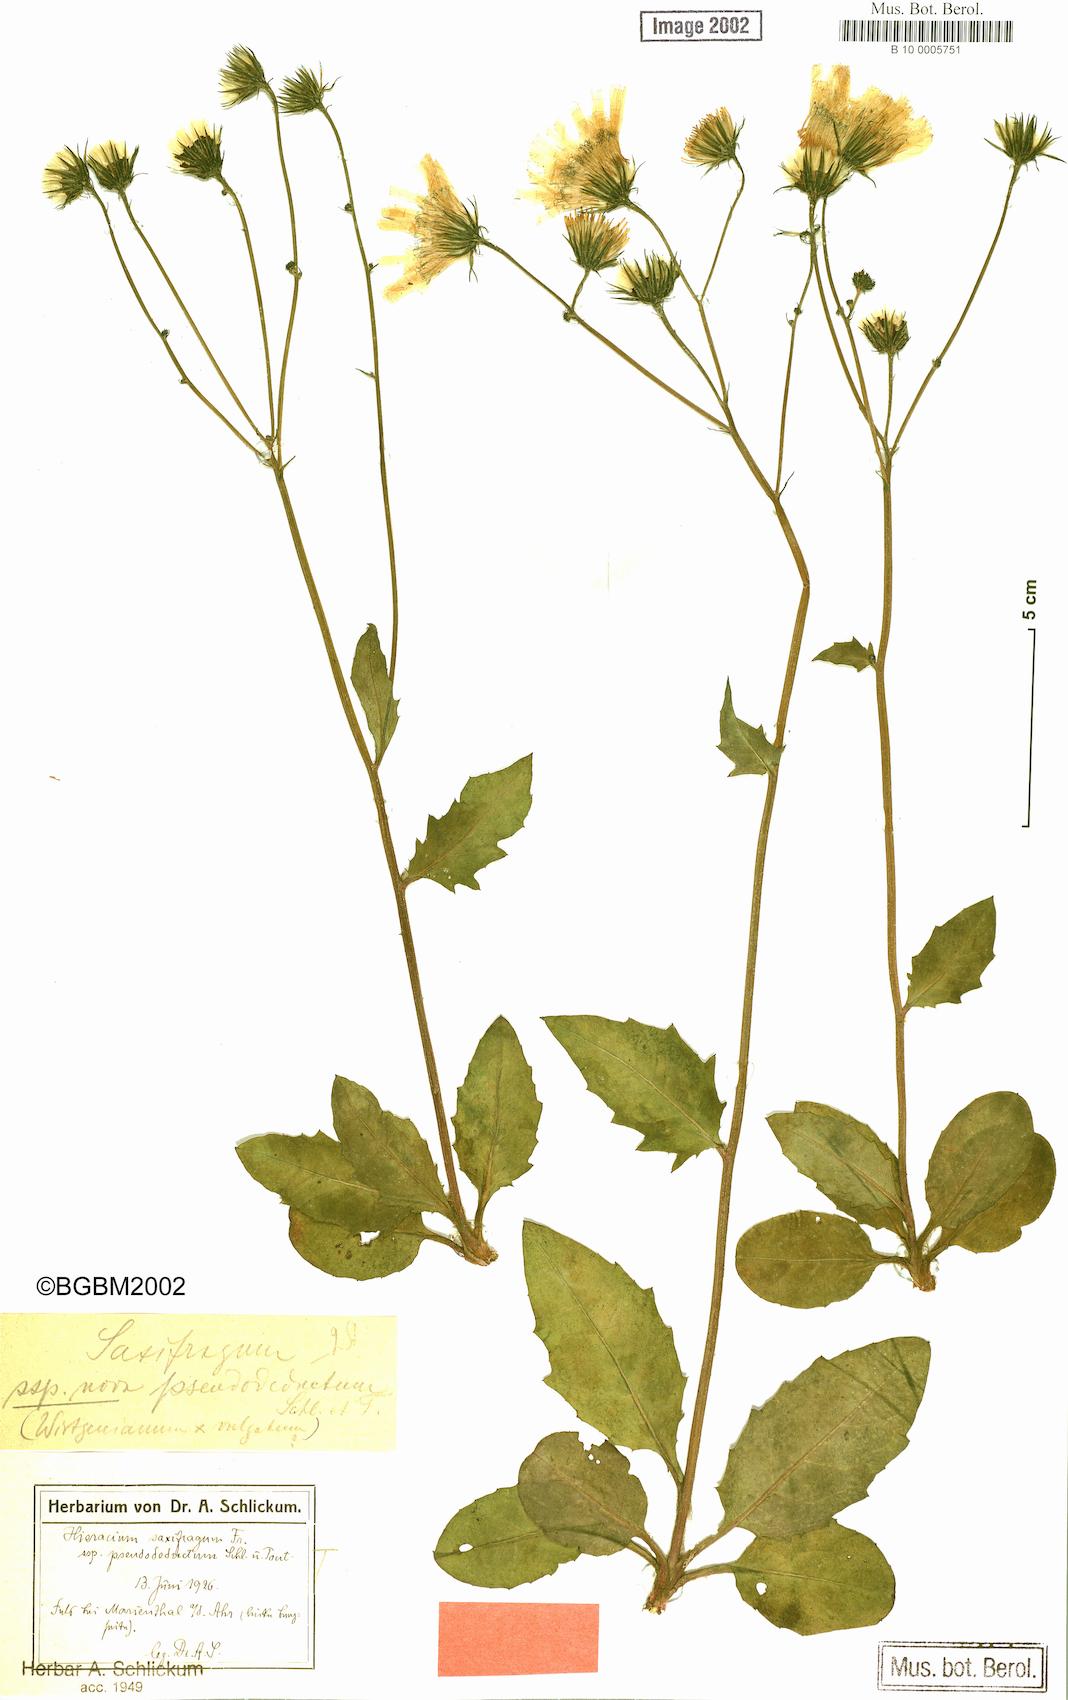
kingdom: Plantae
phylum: Tracheophyta
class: Magnoliopsida
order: Asterales
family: Asteraceae
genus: Hieracium
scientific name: Hieracium saxifragum
